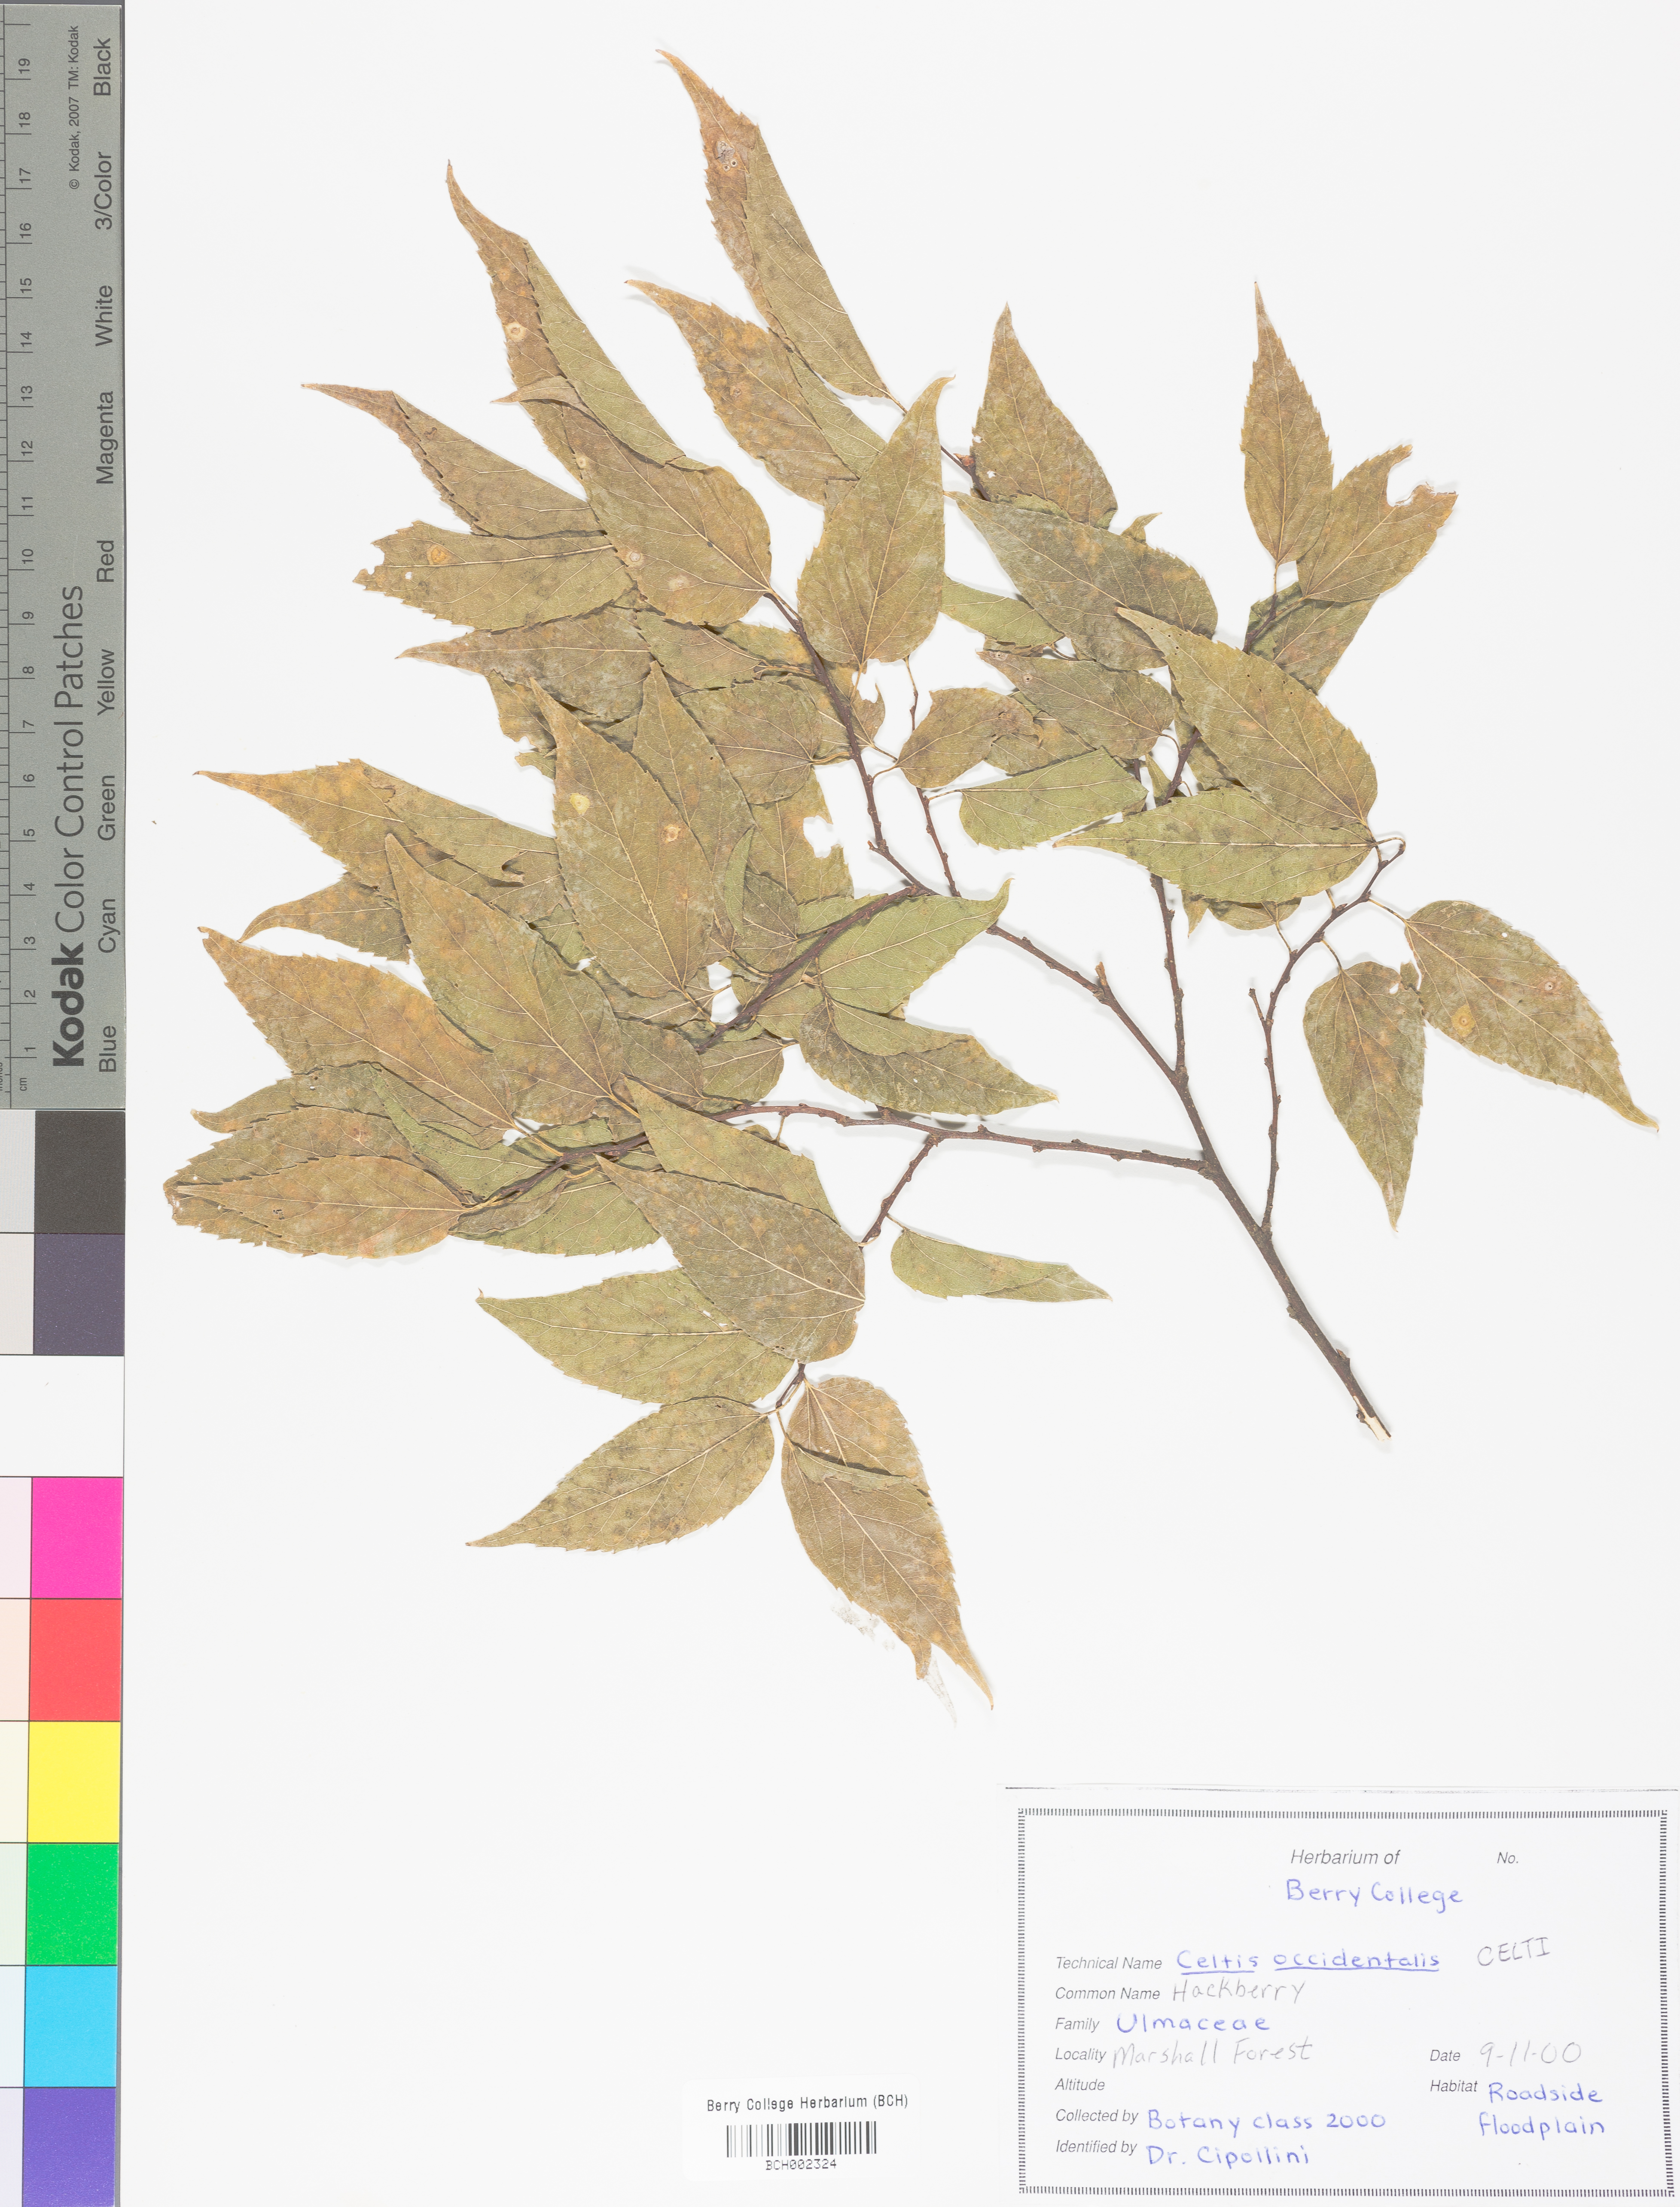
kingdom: Plantae
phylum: Tracheophyta
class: Magnoliopsida
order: Rosales
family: Cannabaceae
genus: Celtis
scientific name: Celtis
